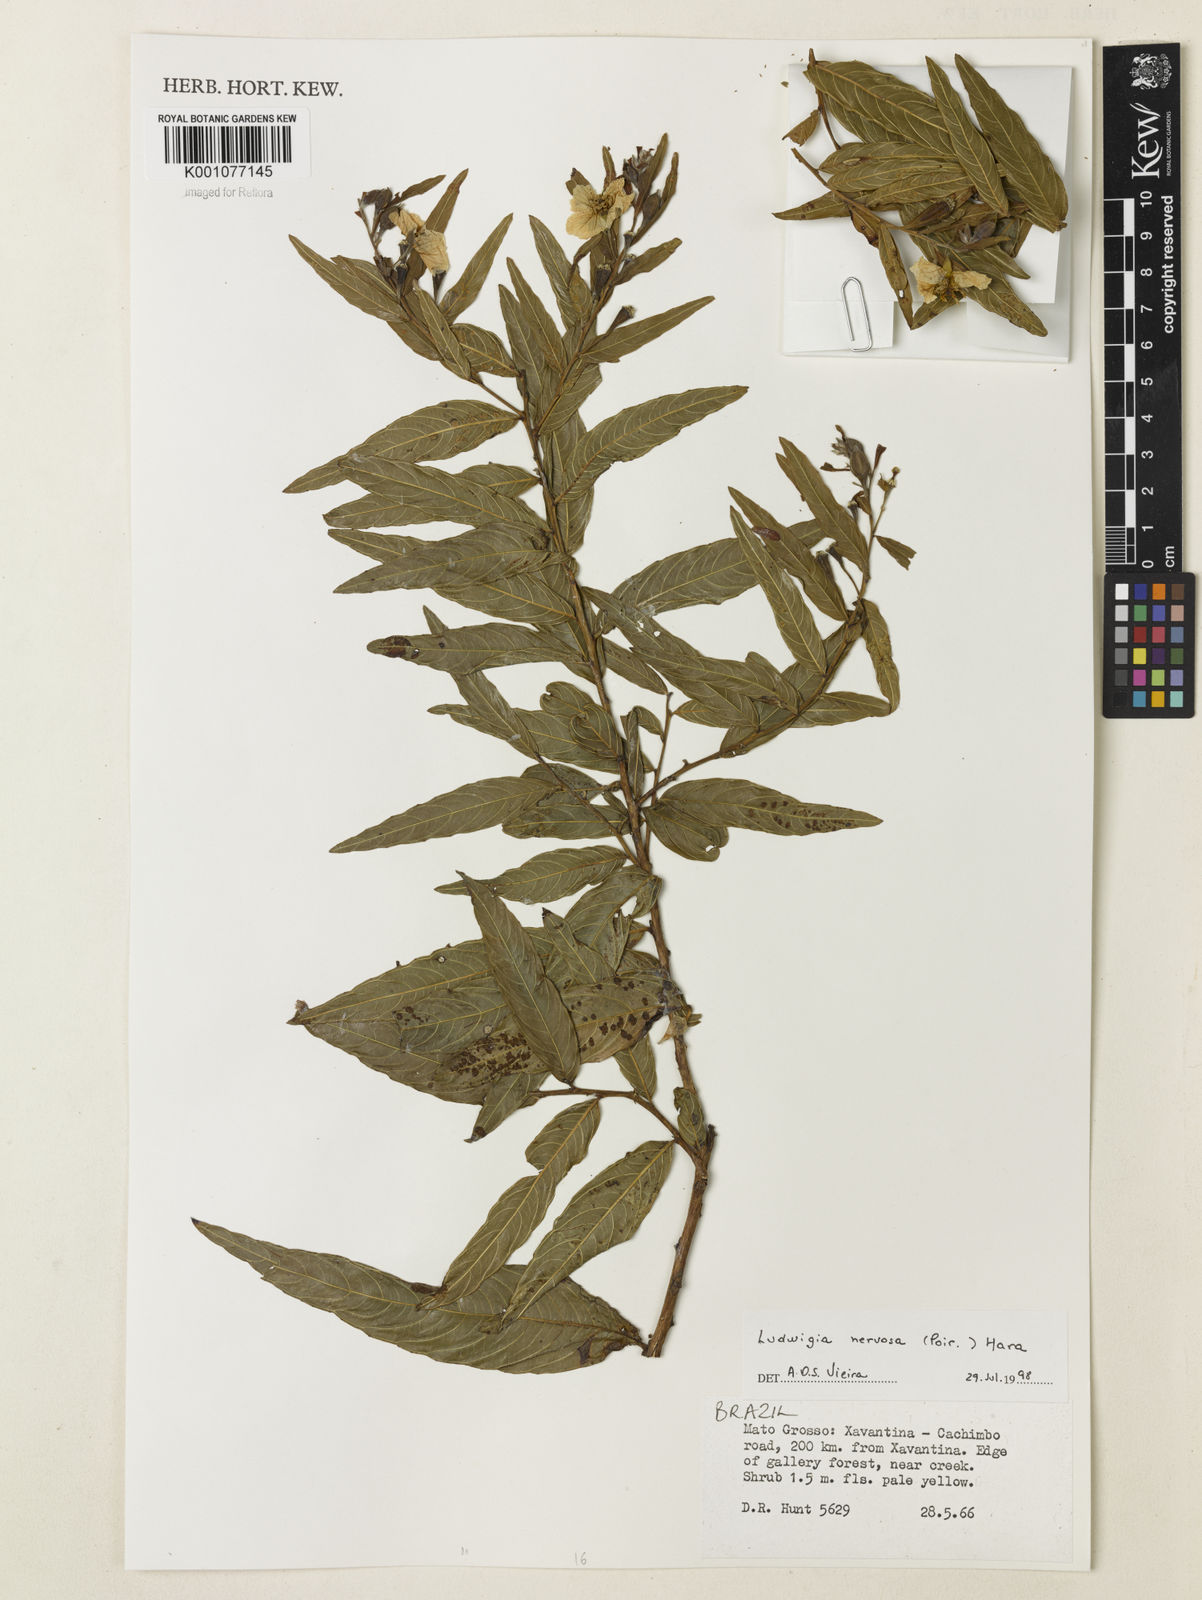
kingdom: Plantae
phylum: Tracheophyta
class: Magnoliopsida
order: Myrtales
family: Onagraceae
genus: Ludwigia
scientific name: Ludwigia nervosa
